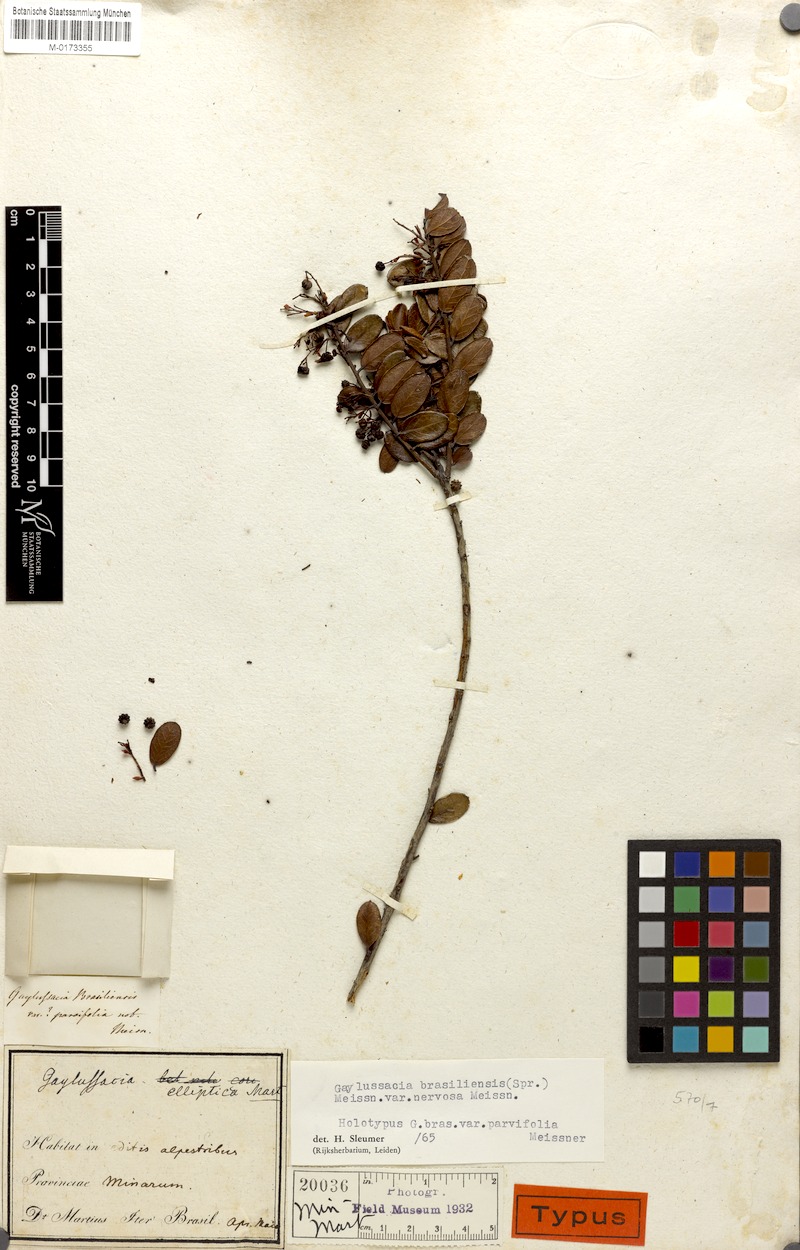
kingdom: Plantae
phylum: Tracheophyta
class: Magnoliopsida
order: Ericales
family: Ericaceae
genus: Gaylussacia
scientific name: Gaylussacia brasiliensis
